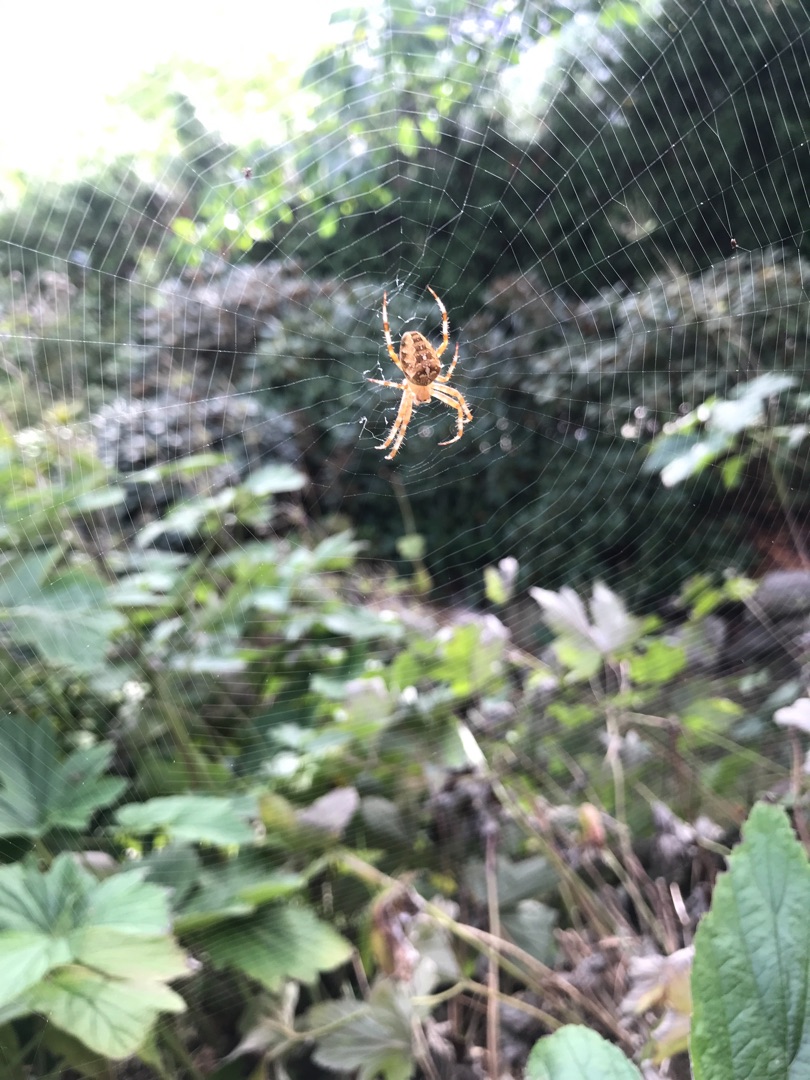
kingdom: Animalia
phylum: Arthropoda
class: Arachnida
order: Araneae
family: Araneidae
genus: Araneus
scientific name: Araneus diadematus
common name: Korsedderkop
